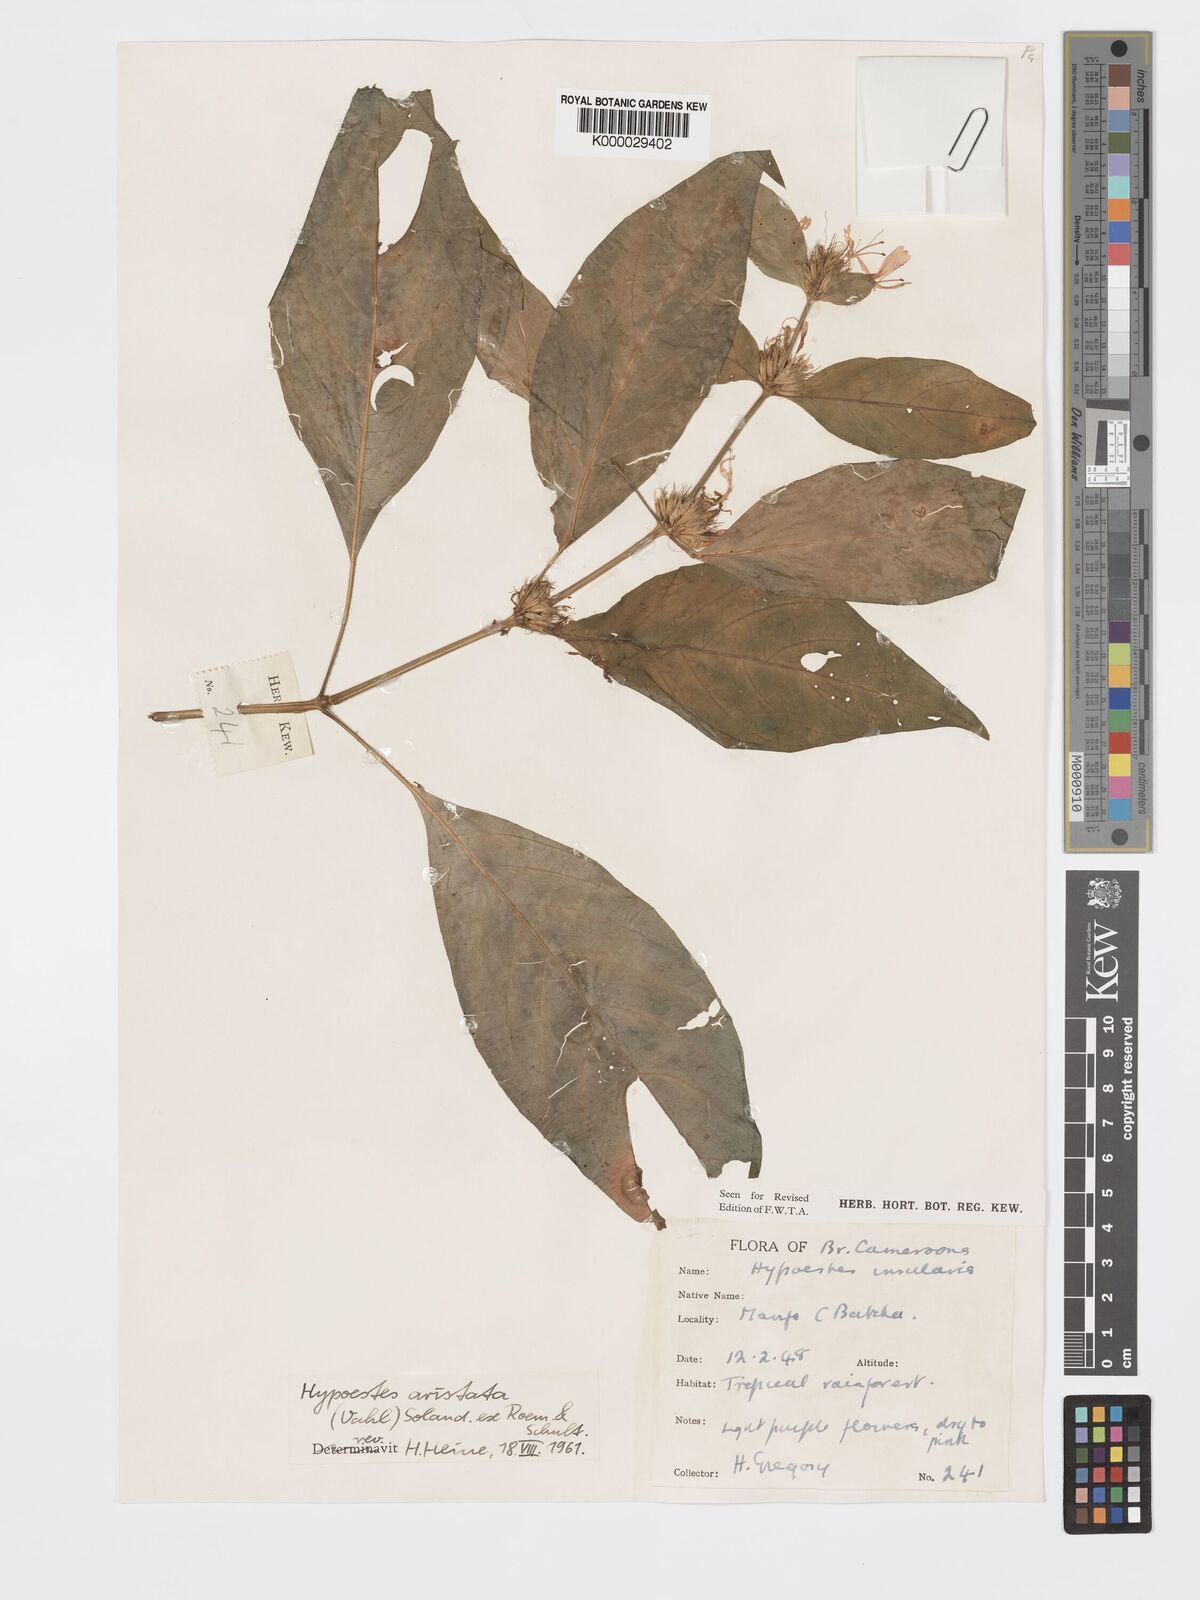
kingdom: Plantae
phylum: Tracheophyta
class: Magnoliopsida
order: Lamiales
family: Acanthaceae
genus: Hypoestes
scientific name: Hypoestes aristata
